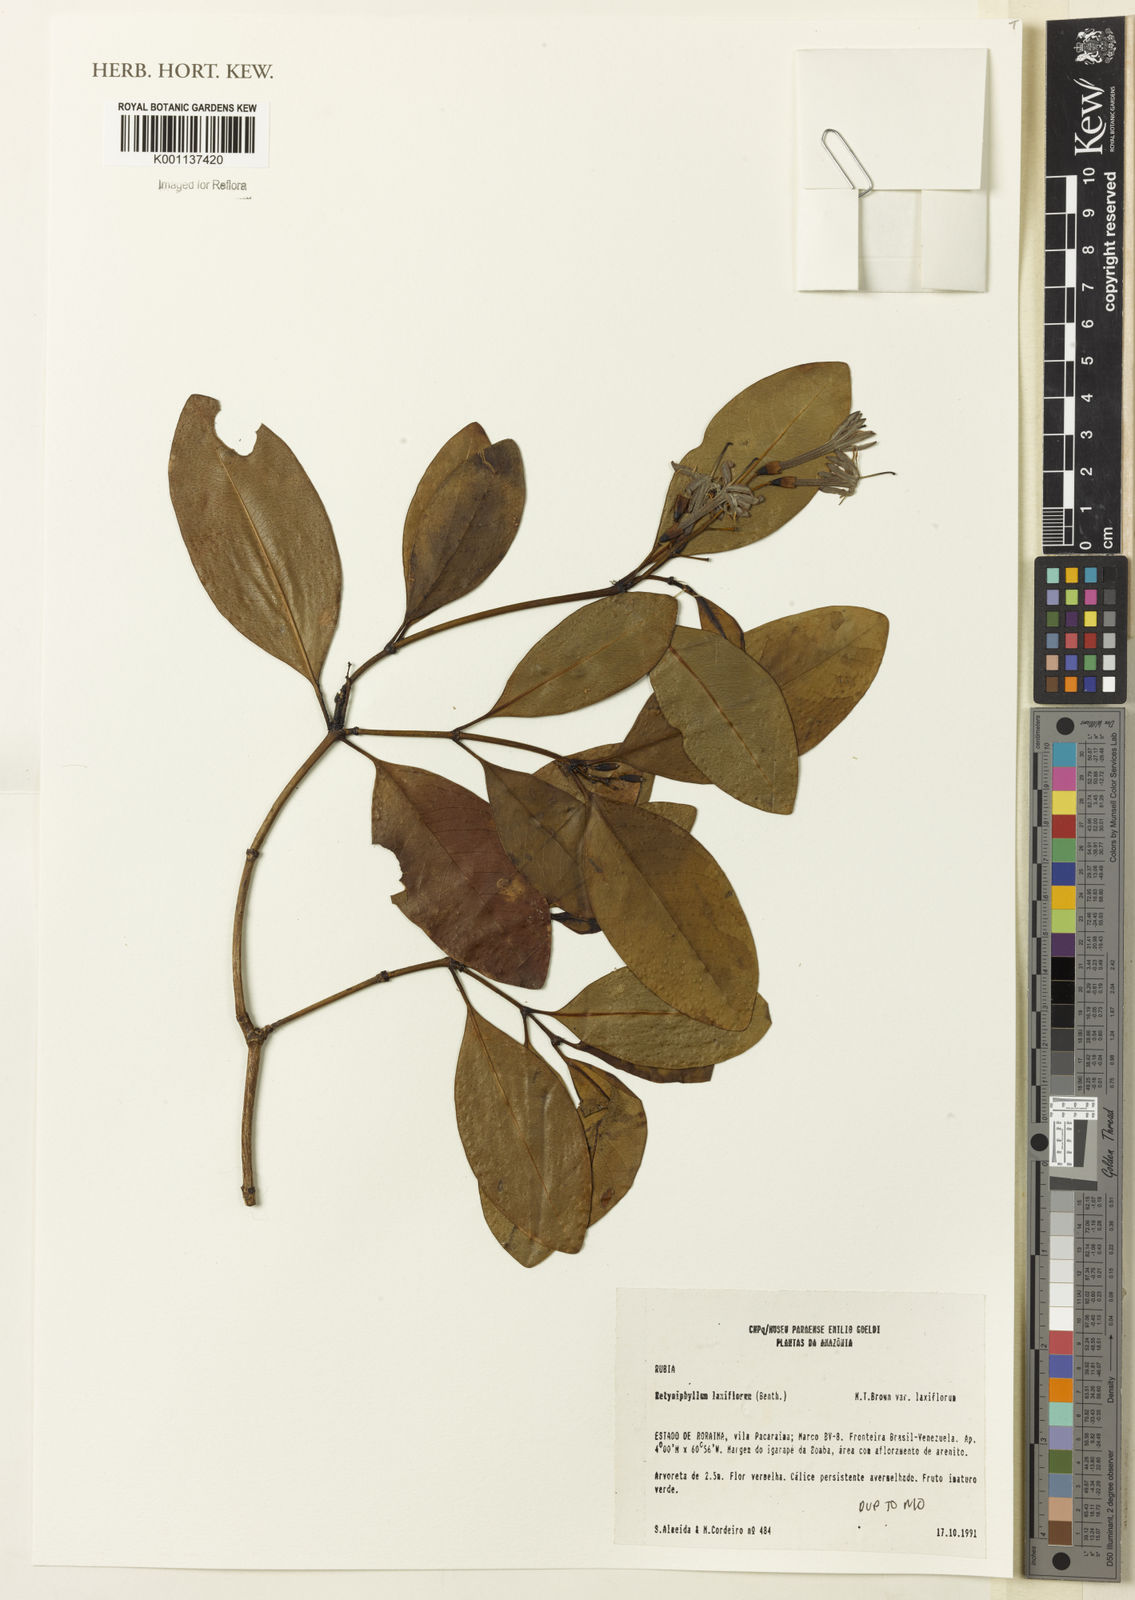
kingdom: Plantae
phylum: Tracheophyta
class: Magnoliopsida
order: Gentianales
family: Rubiaceae
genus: Retiniphyllum
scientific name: Retiniphyllum laxiflorum
